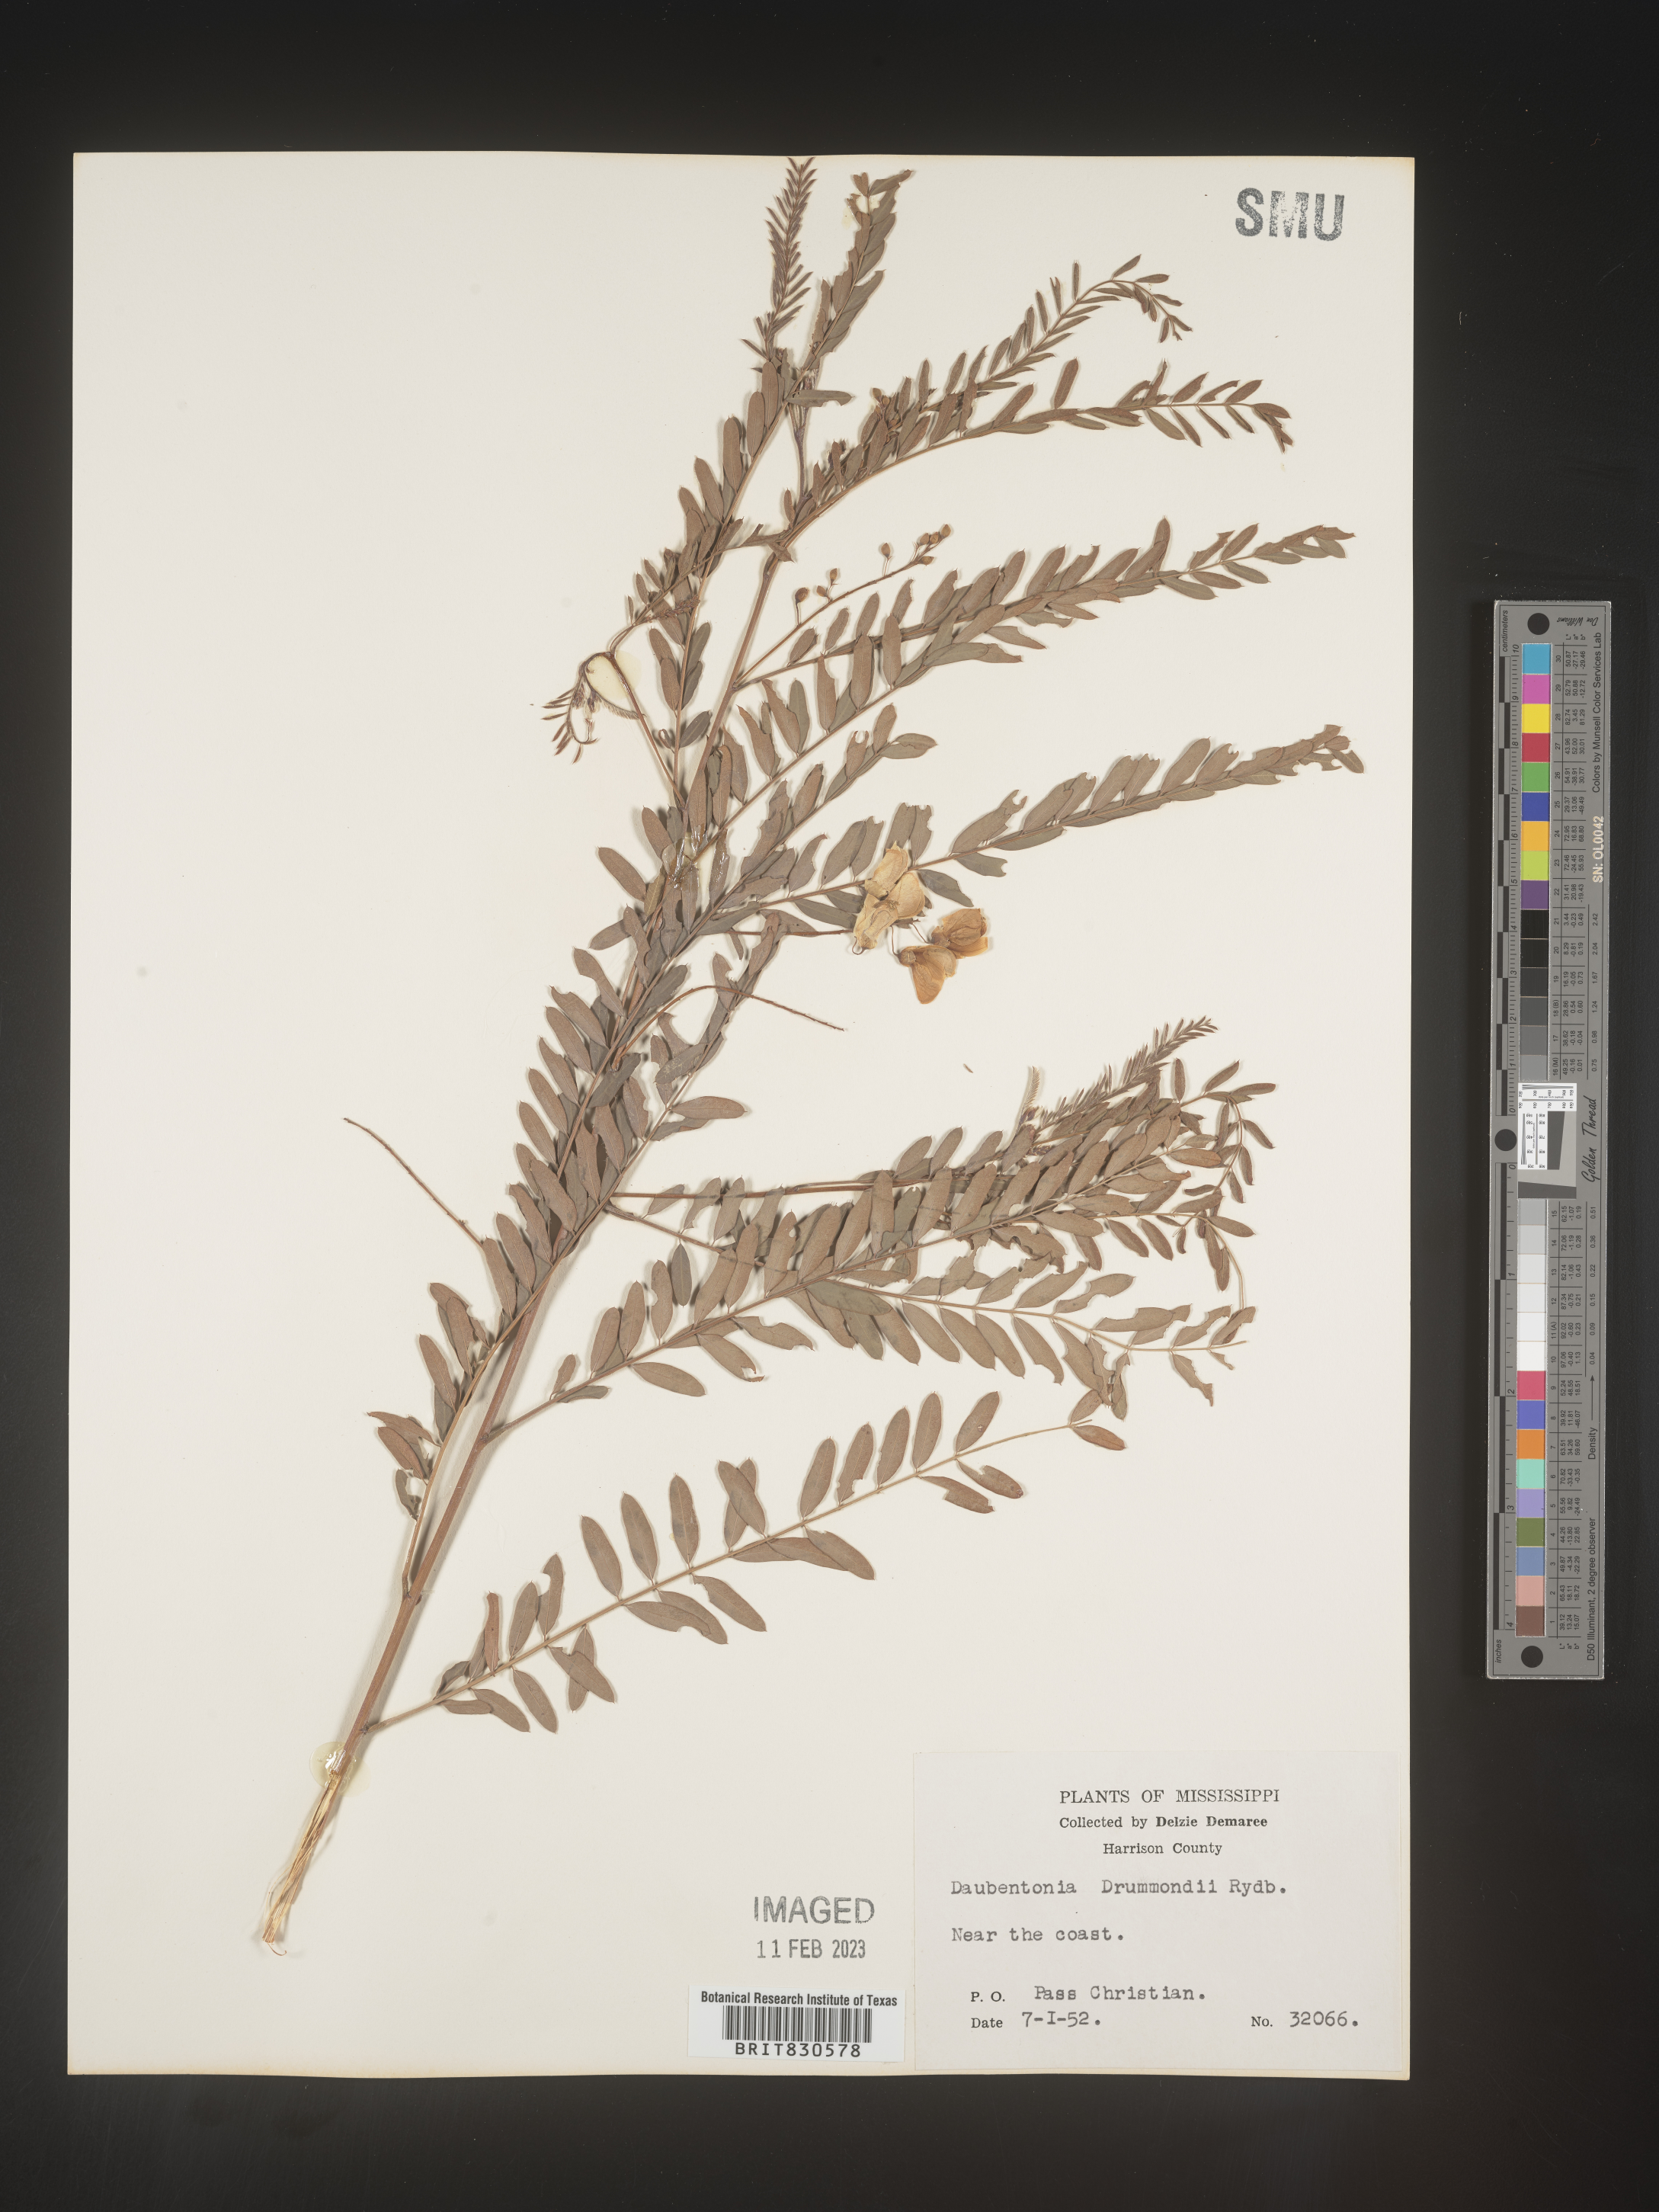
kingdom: Plantae
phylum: Tracheophyta
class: Magnoliopsida
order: Fabales
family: Fabaceae
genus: Sesbania
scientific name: Sesbania drummondii
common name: Poison-bean
